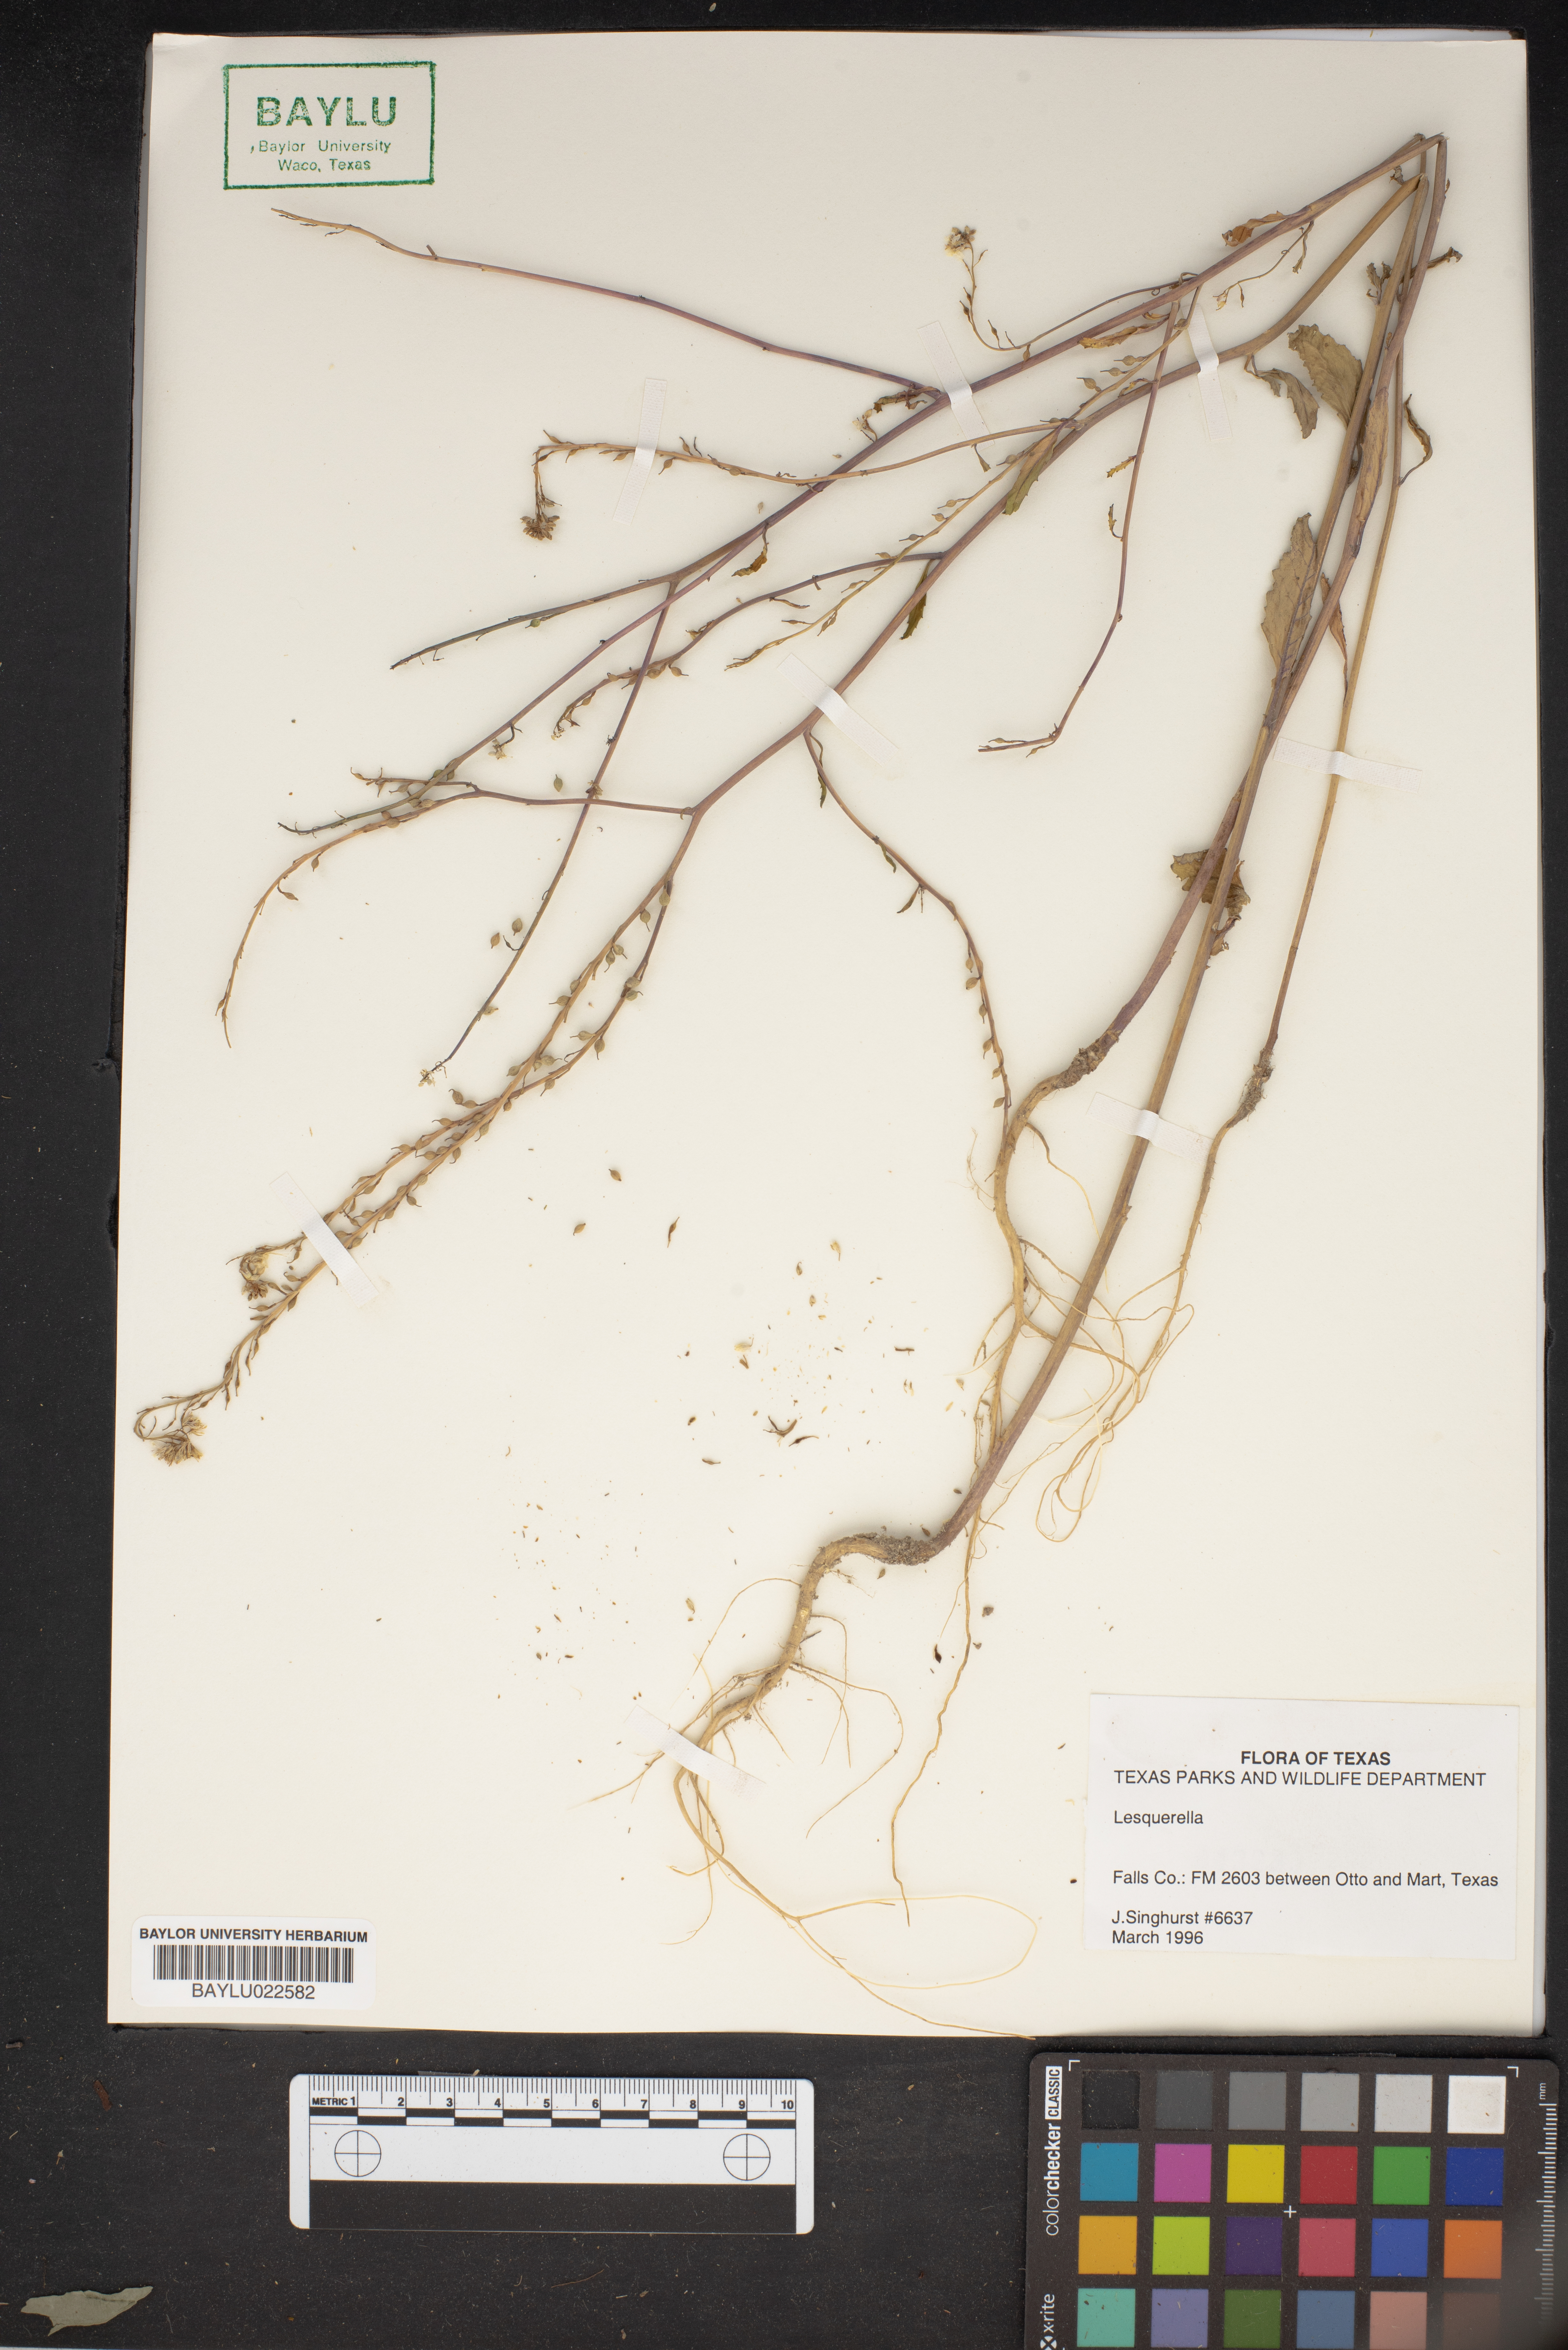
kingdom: Chromista
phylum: Cercozoa
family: Psammonobiotidae
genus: Lesquerella
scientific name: Lesquerella
